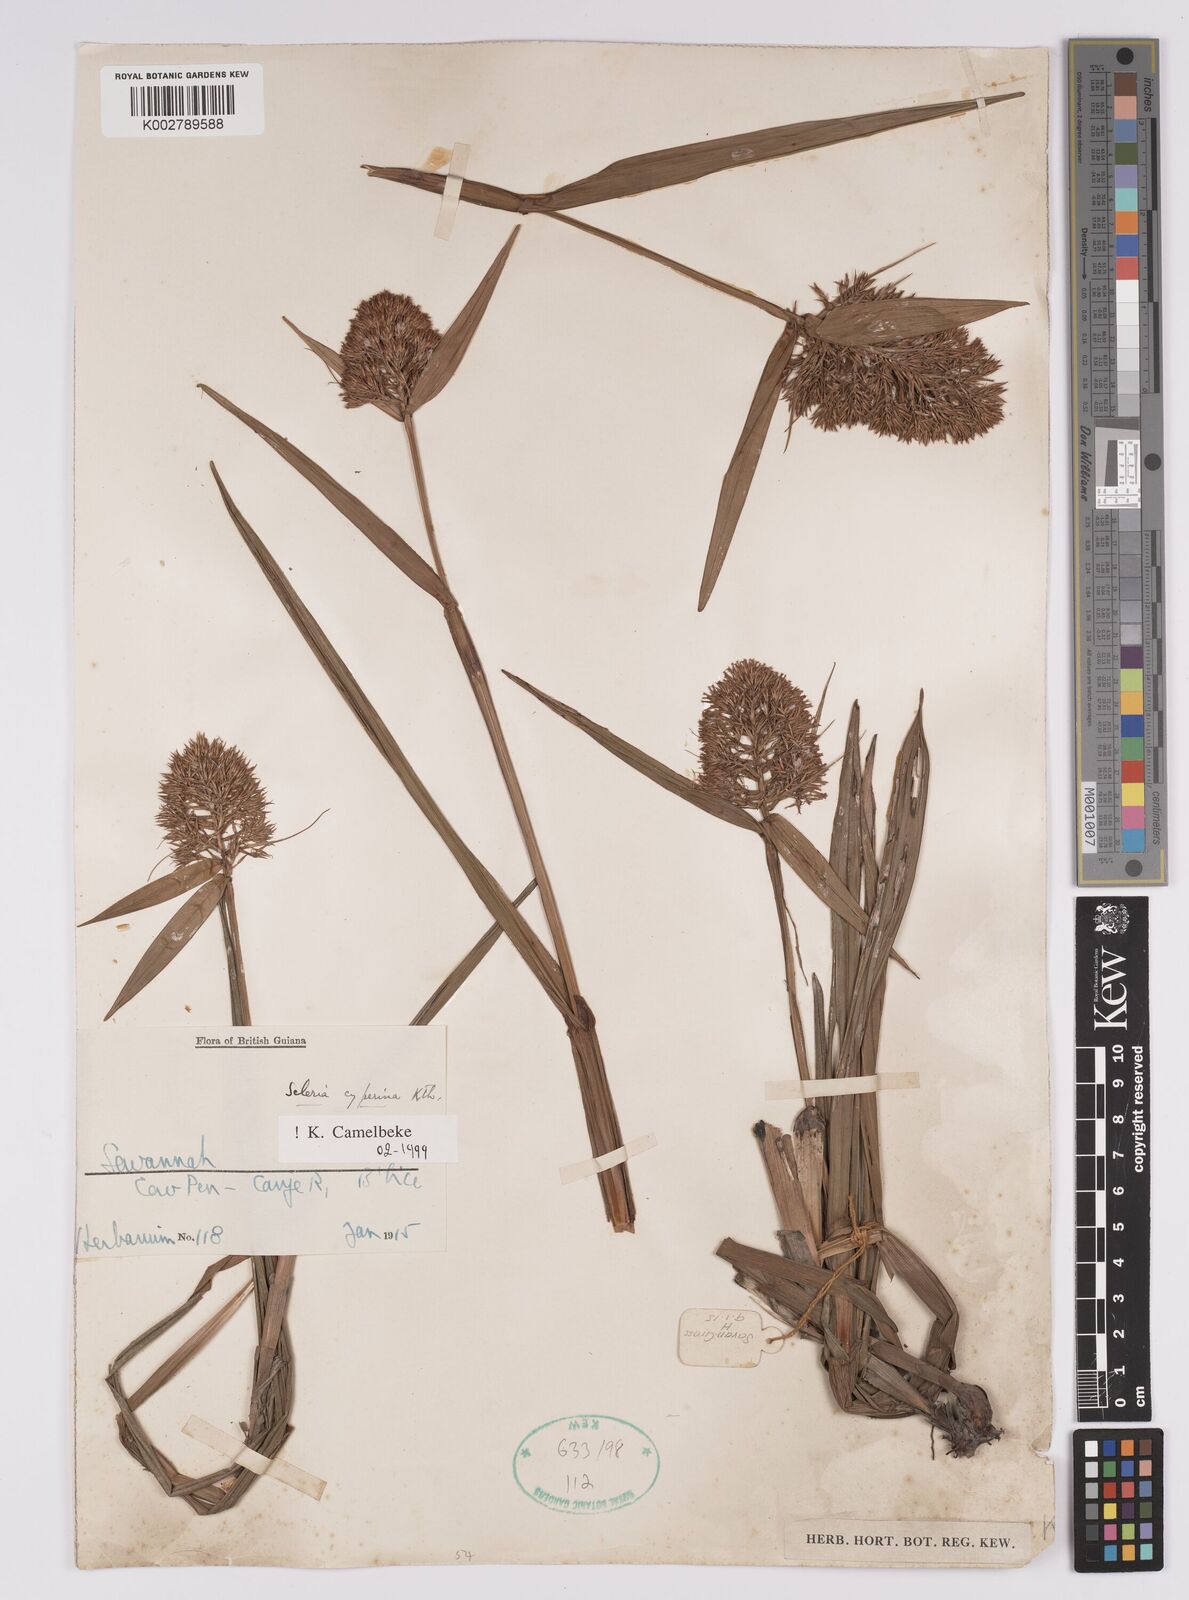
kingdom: Plantae
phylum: Tracheophyta
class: Liliopsida
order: Poales
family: Cyperaceae
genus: Scleria
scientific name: Scleria cyperina
